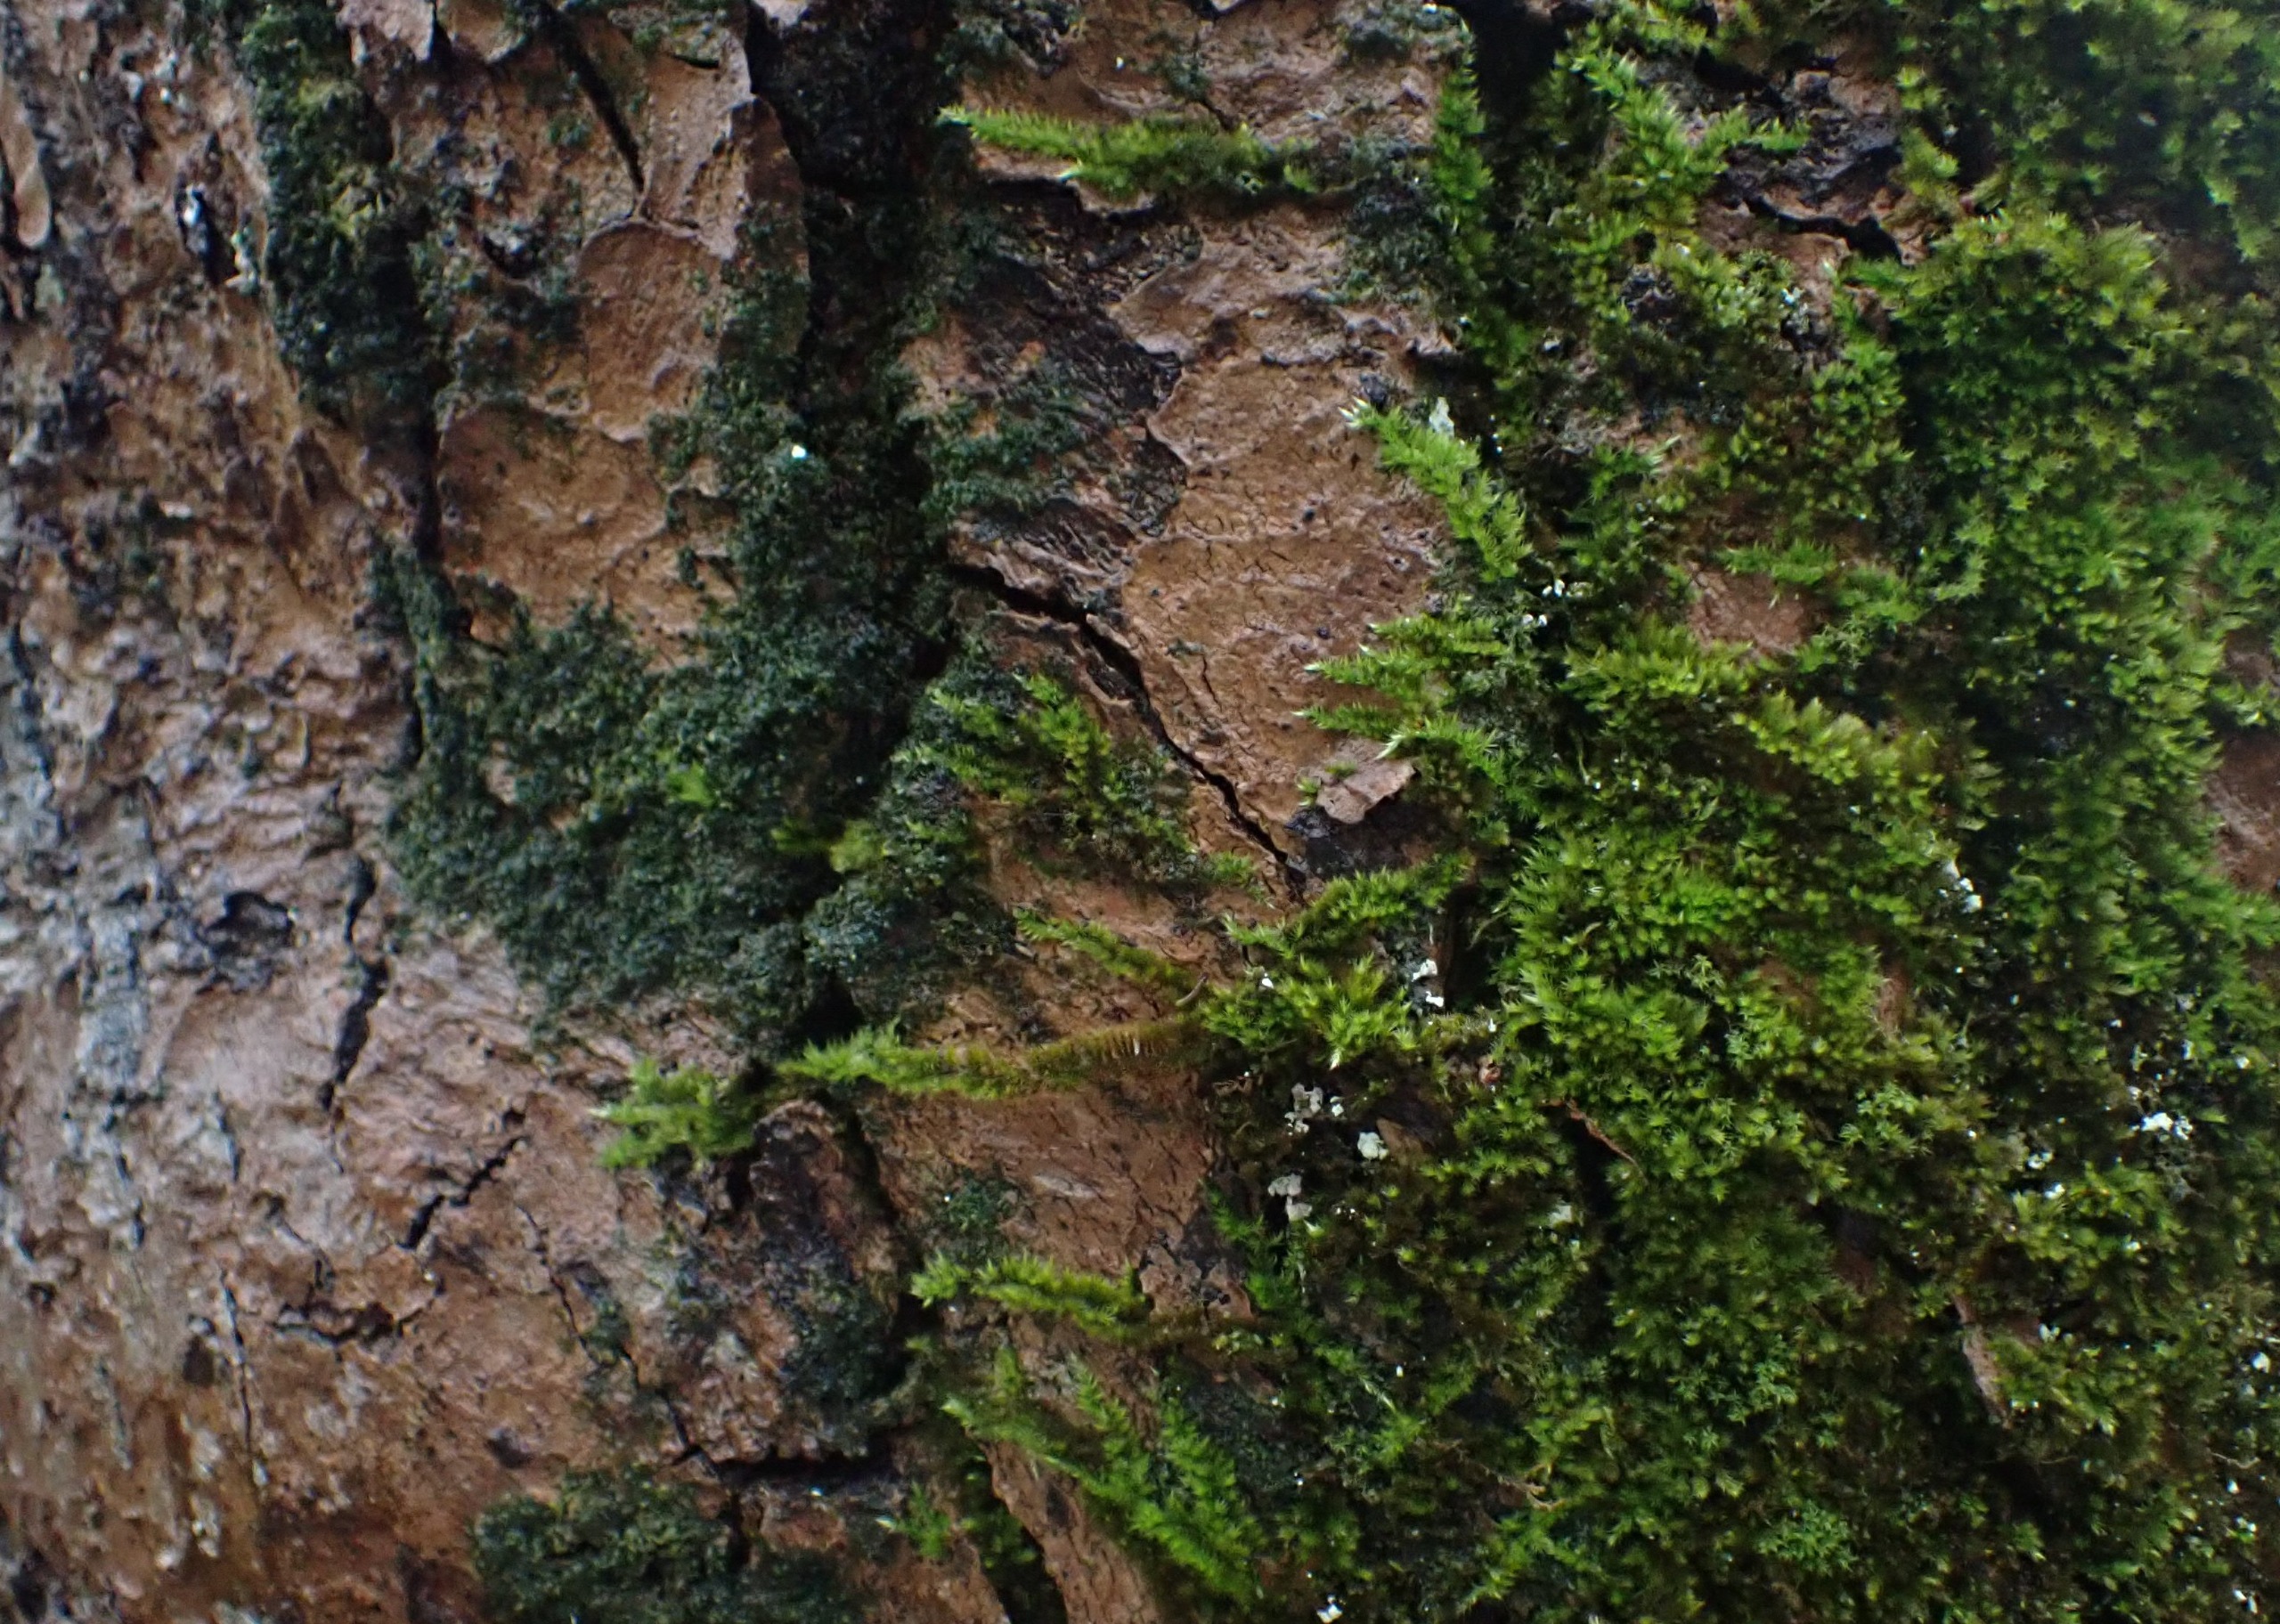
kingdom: Plantae
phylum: Bryophyta
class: Bryopsida
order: Hypnales
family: Brachytheciaceae
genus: Homalothecium
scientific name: Homalothecium sericeum
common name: Krybende silkemos
